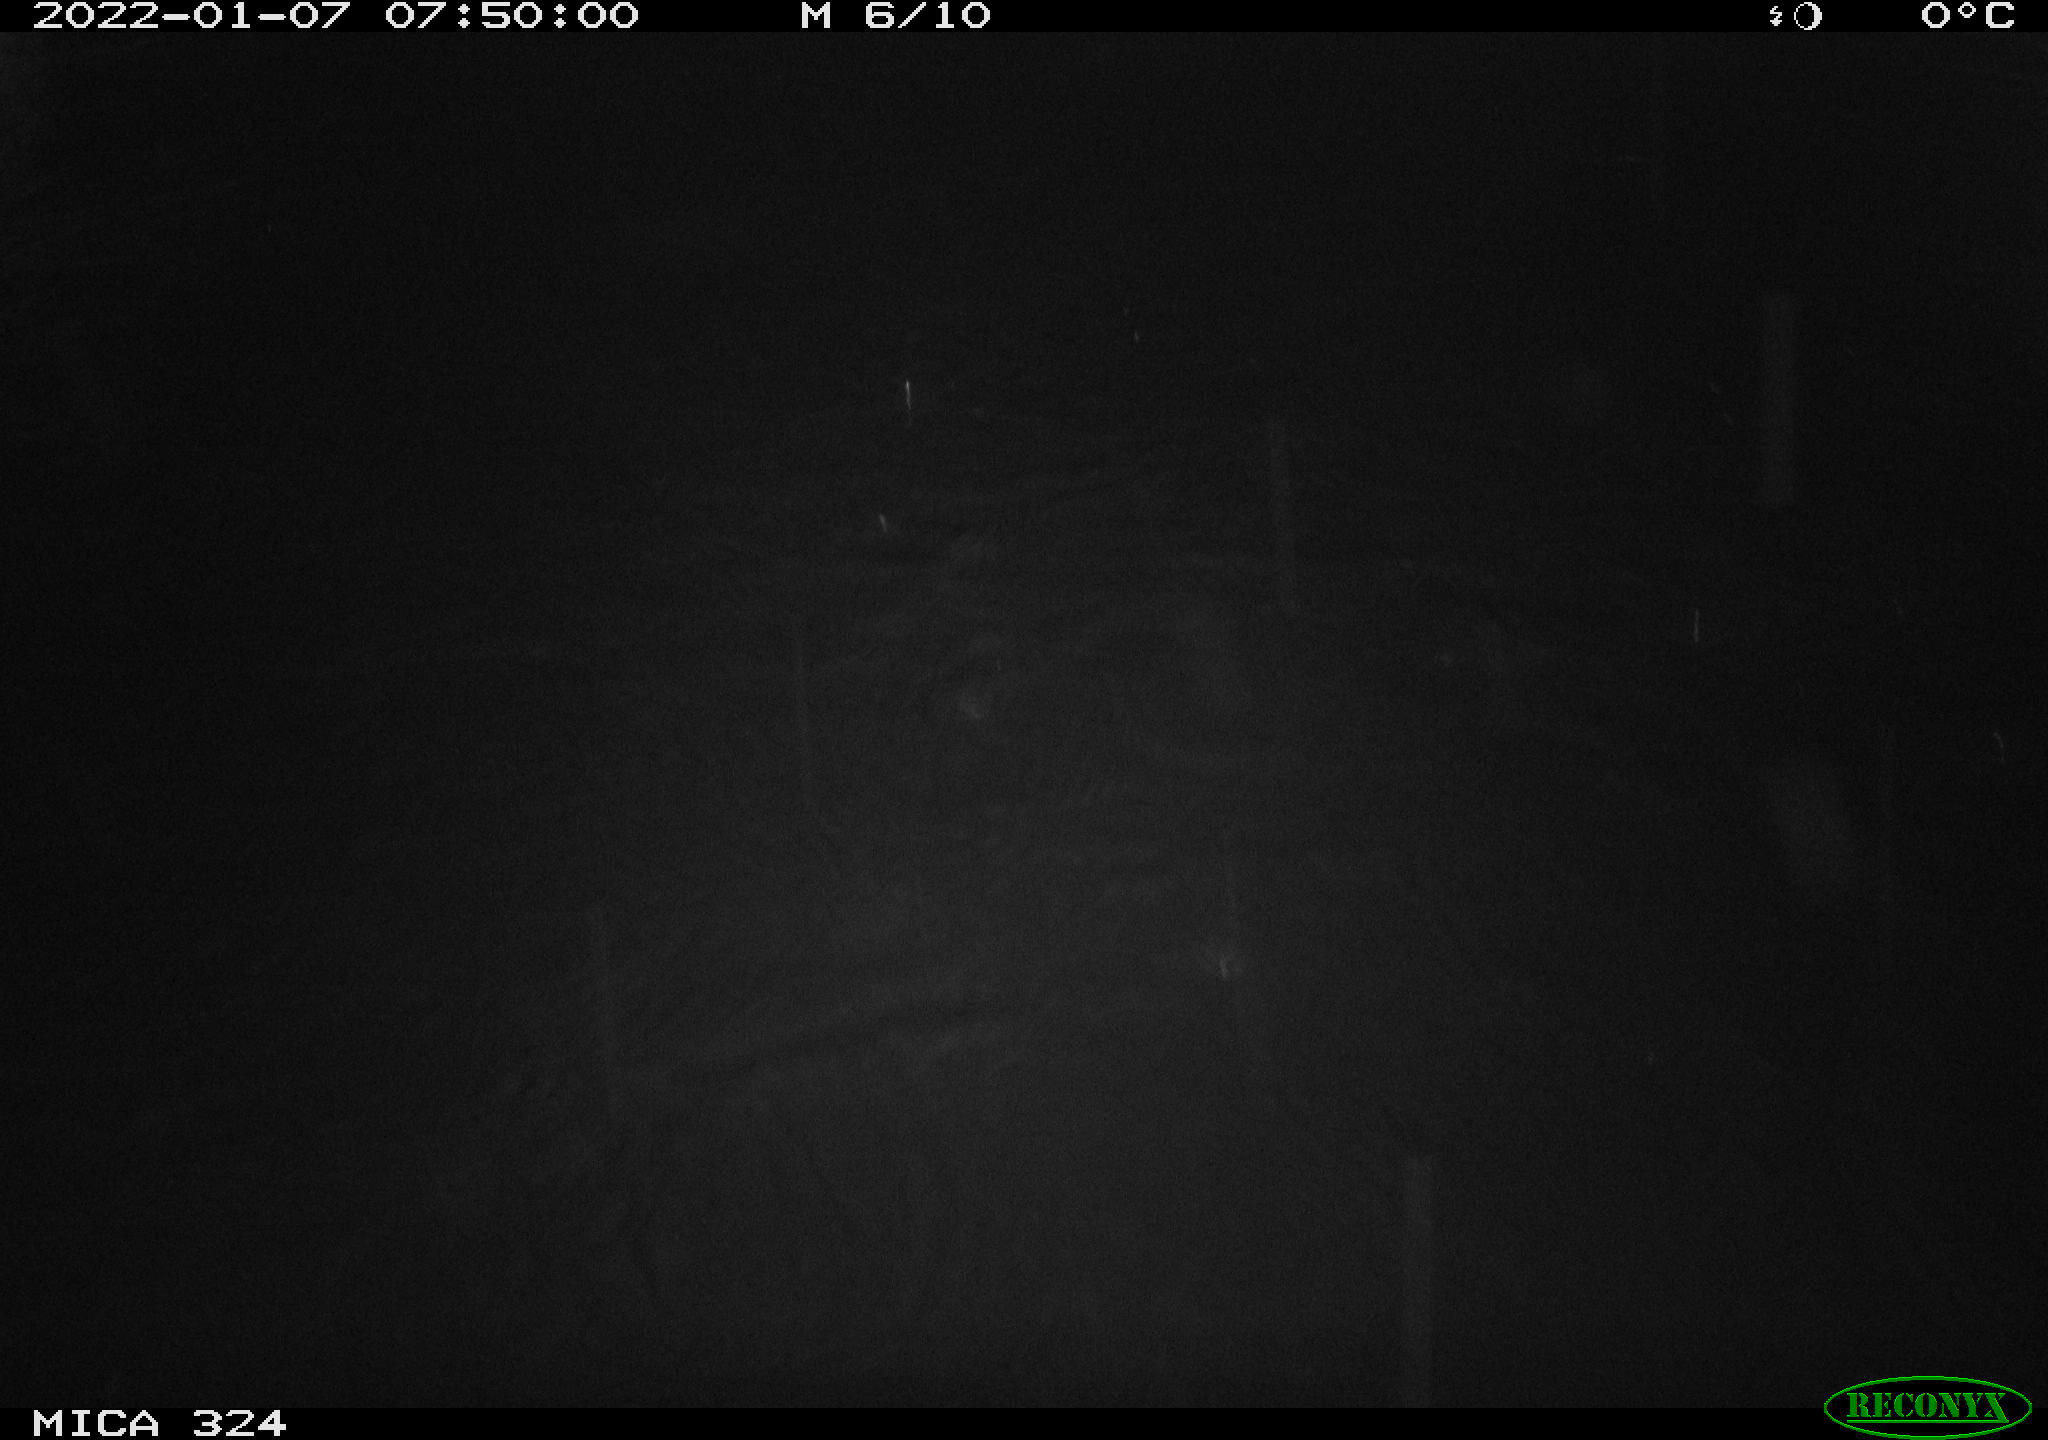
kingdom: Animalia
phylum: Chordata
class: Mammalia
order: Rodentia
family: Cricetidae
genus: Ondatra
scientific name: Ondatra zibethicus
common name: Muskrat
